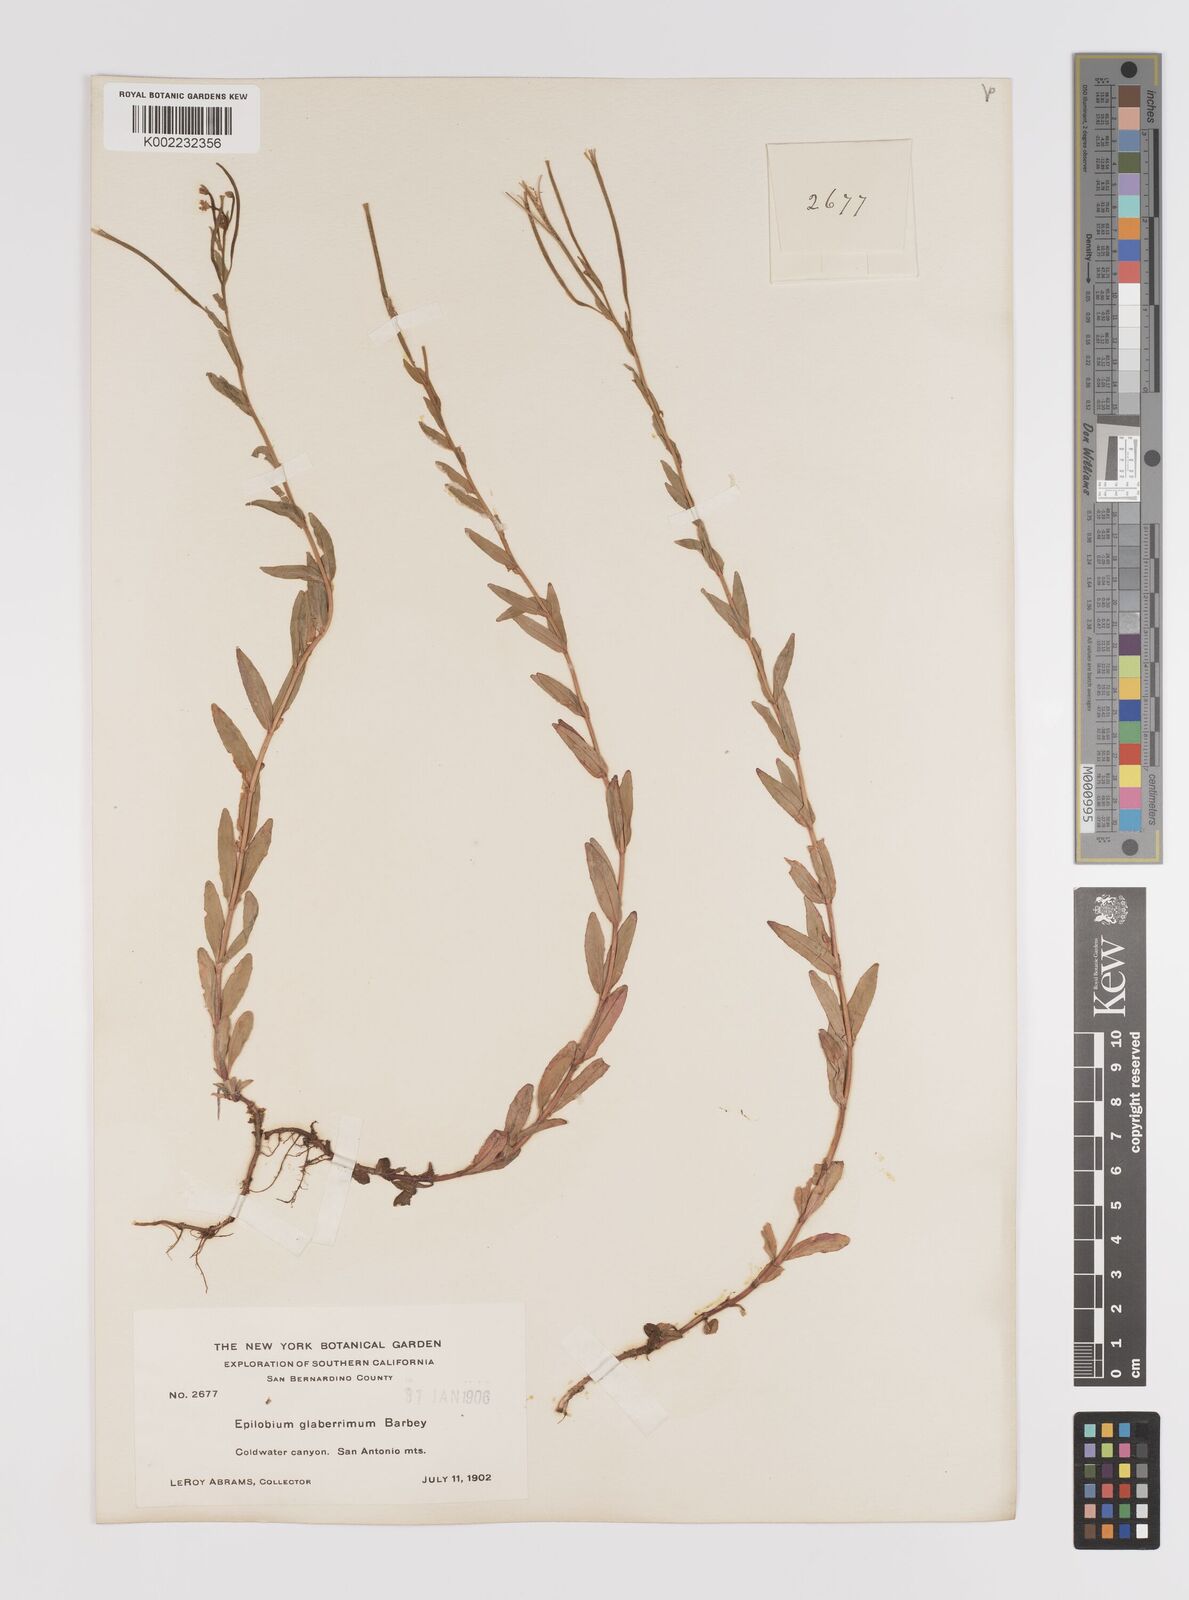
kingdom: Plantae
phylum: Tracheophyta
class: Magnoliopsida
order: Myrtales
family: Onagraceae
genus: Epilobium
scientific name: Epilobium glaberrimum
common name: Glaucous willowherb
